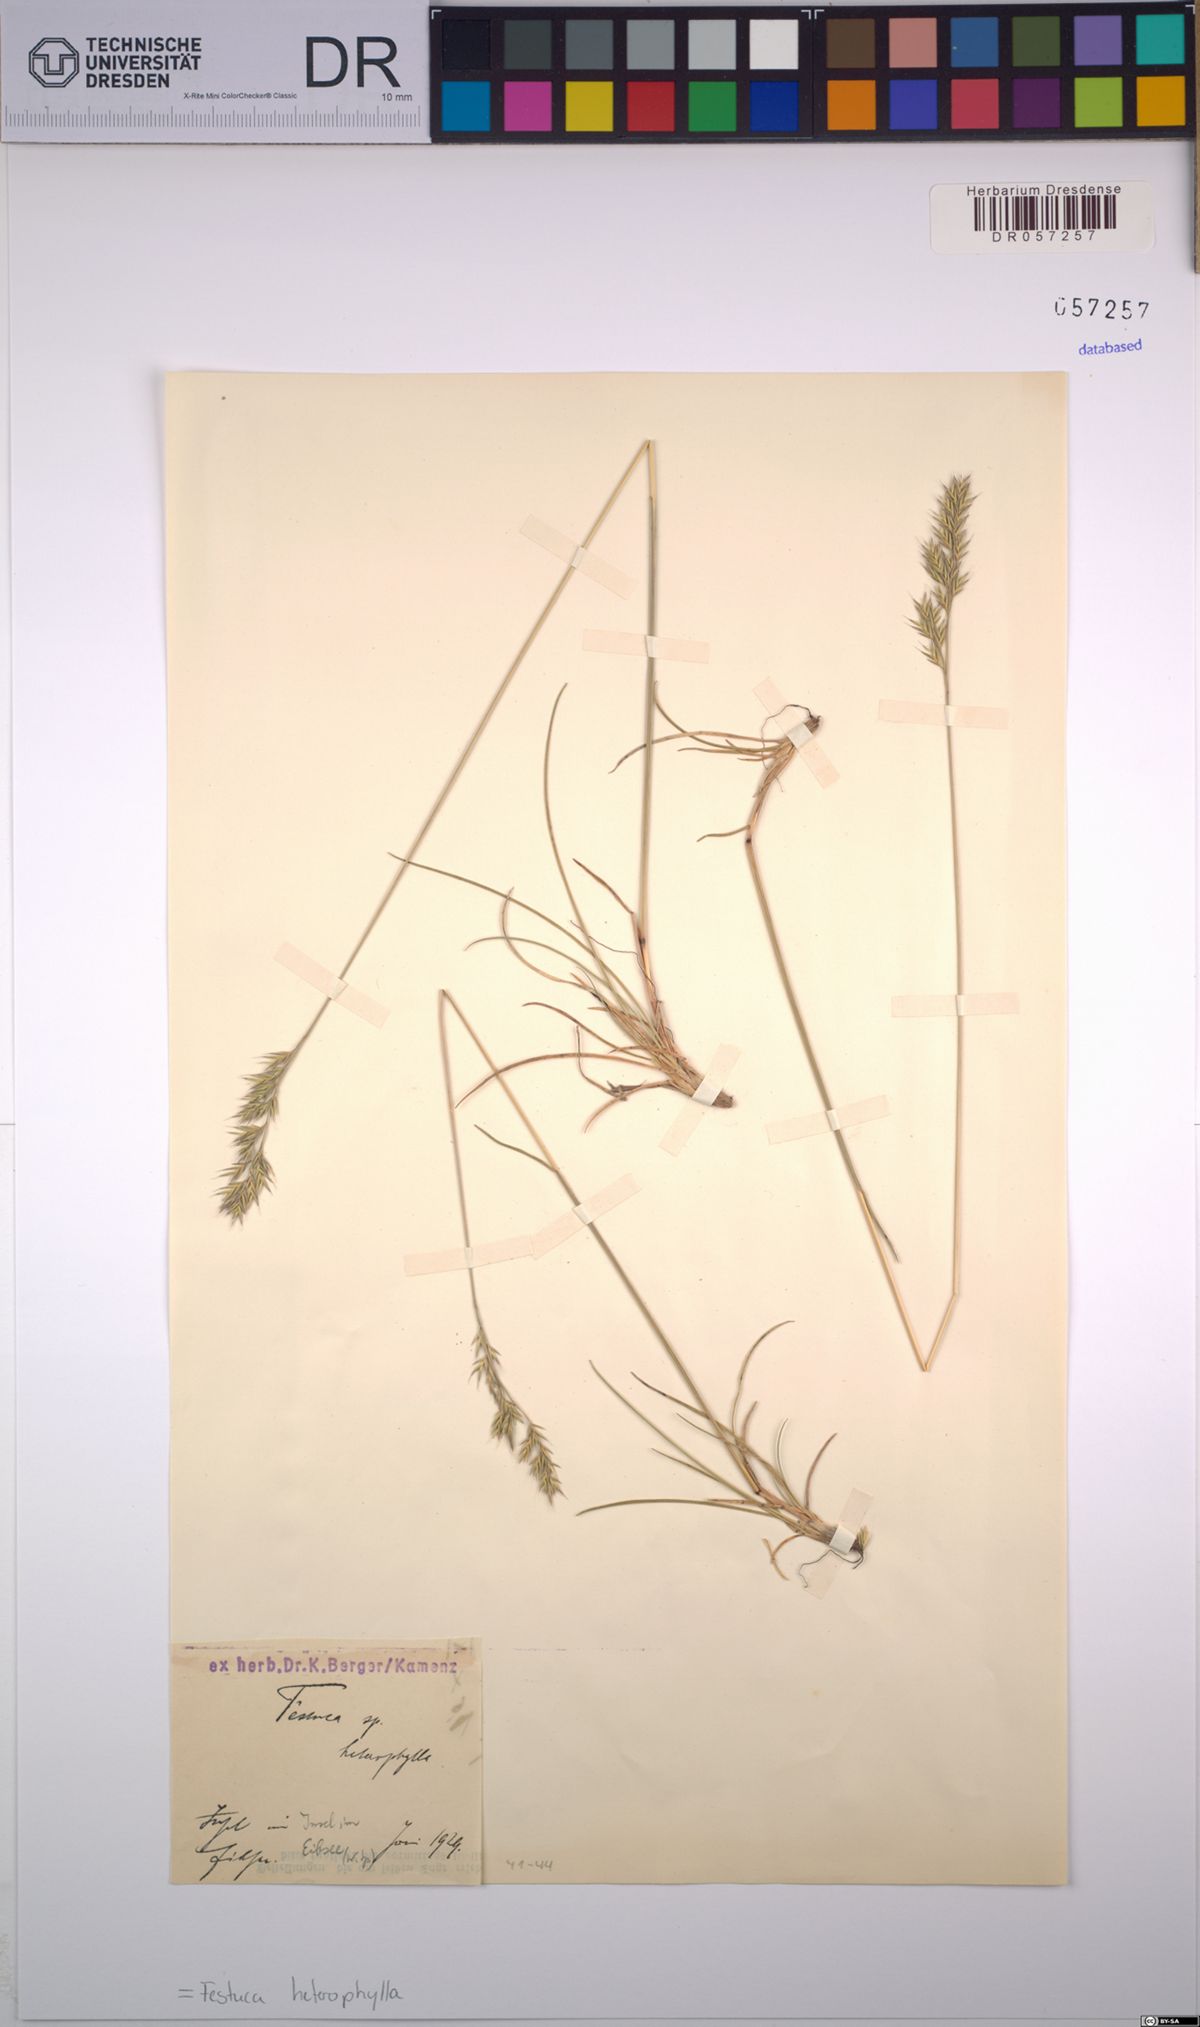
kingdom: Plantae
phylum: Tracheophyta
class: Liliopsida
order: Poales
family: Poaceae
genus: Festuca
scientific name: Festuca heterophylla
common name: Various-leaved fescue
